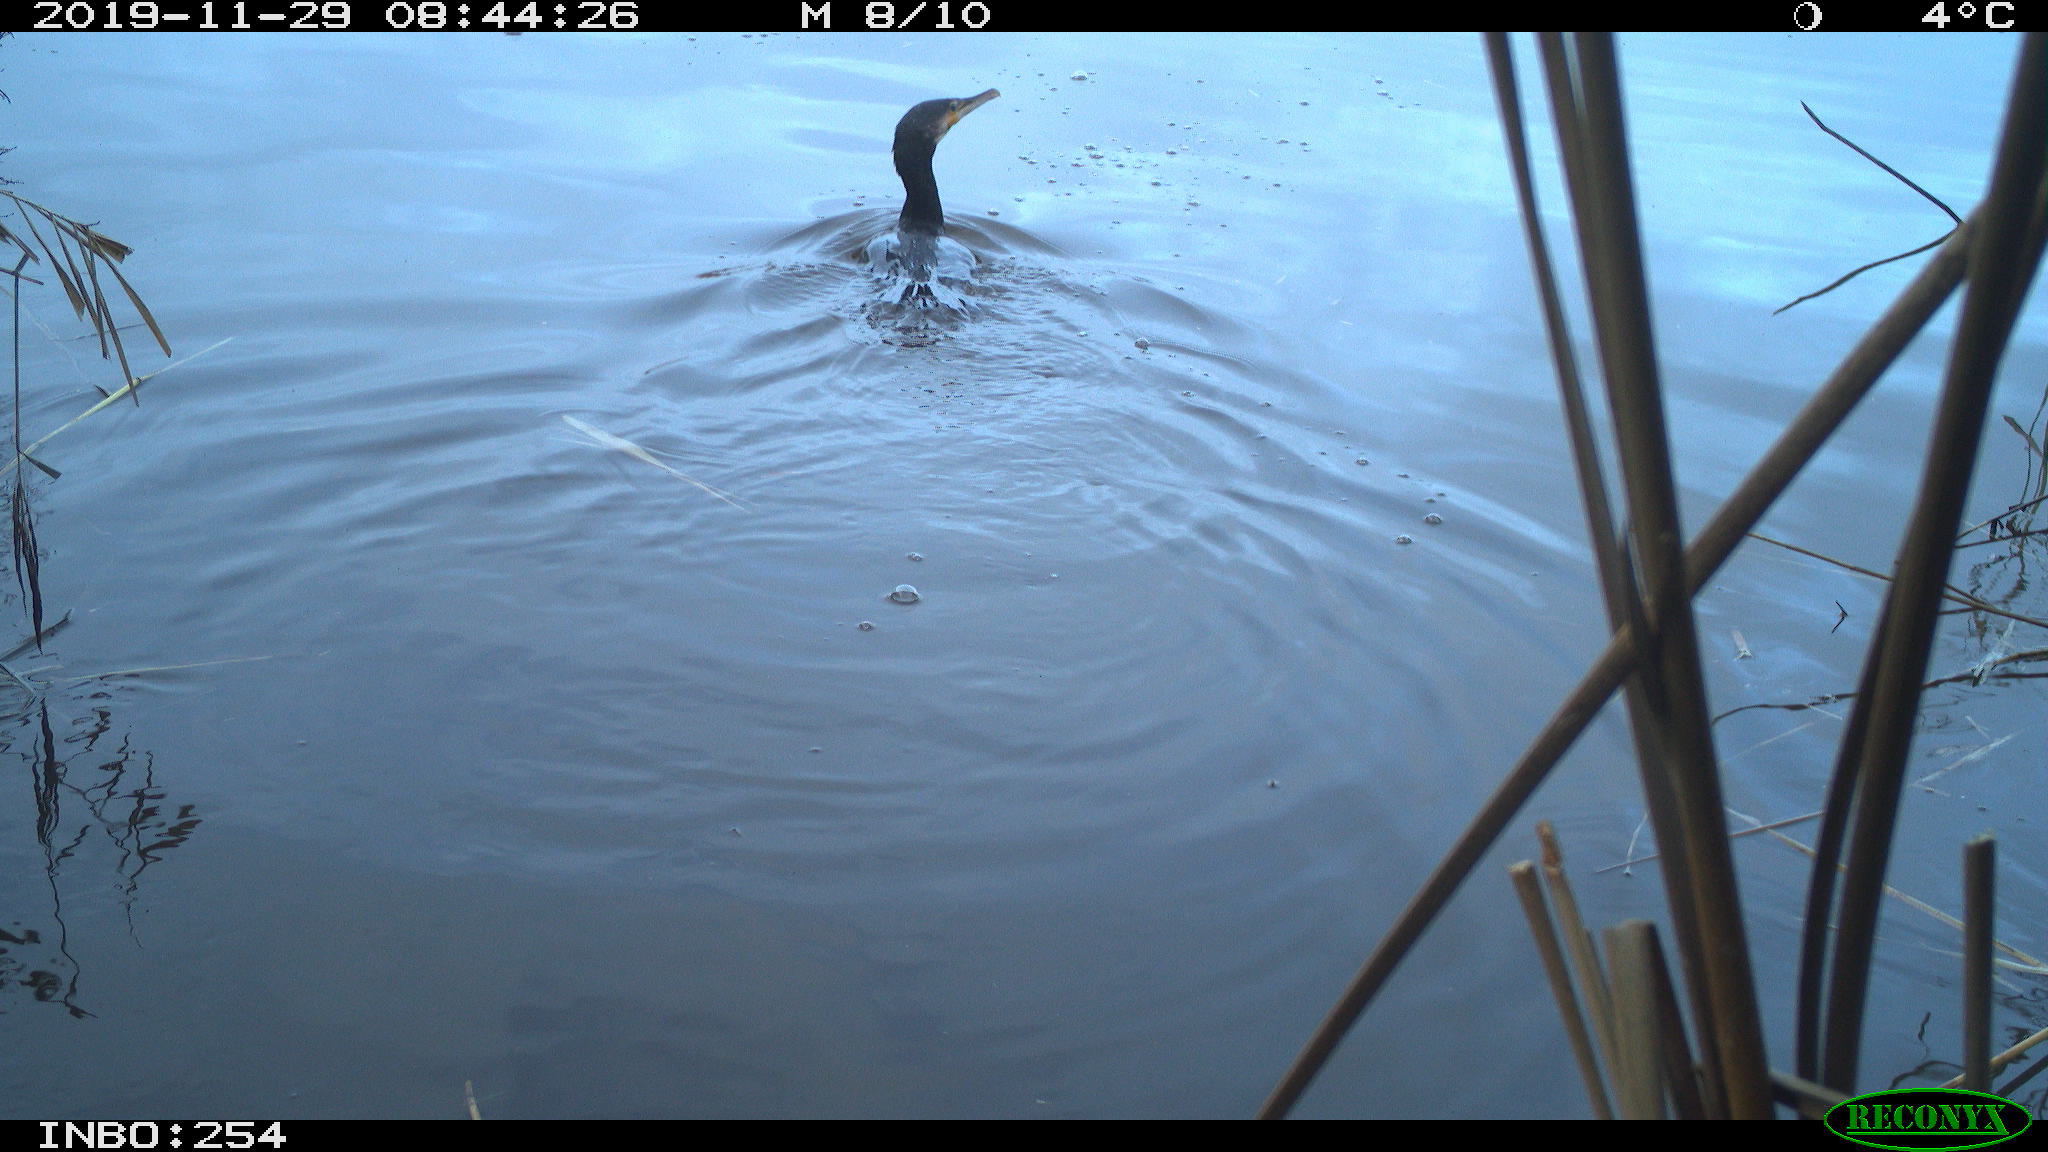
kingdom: Animalia
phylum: Chordata
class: Aves
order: Suliformes
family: Phalacrocoracidae
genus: Phalacrocorax
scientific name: Phalacrocorax carbo
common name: Great cormorant
